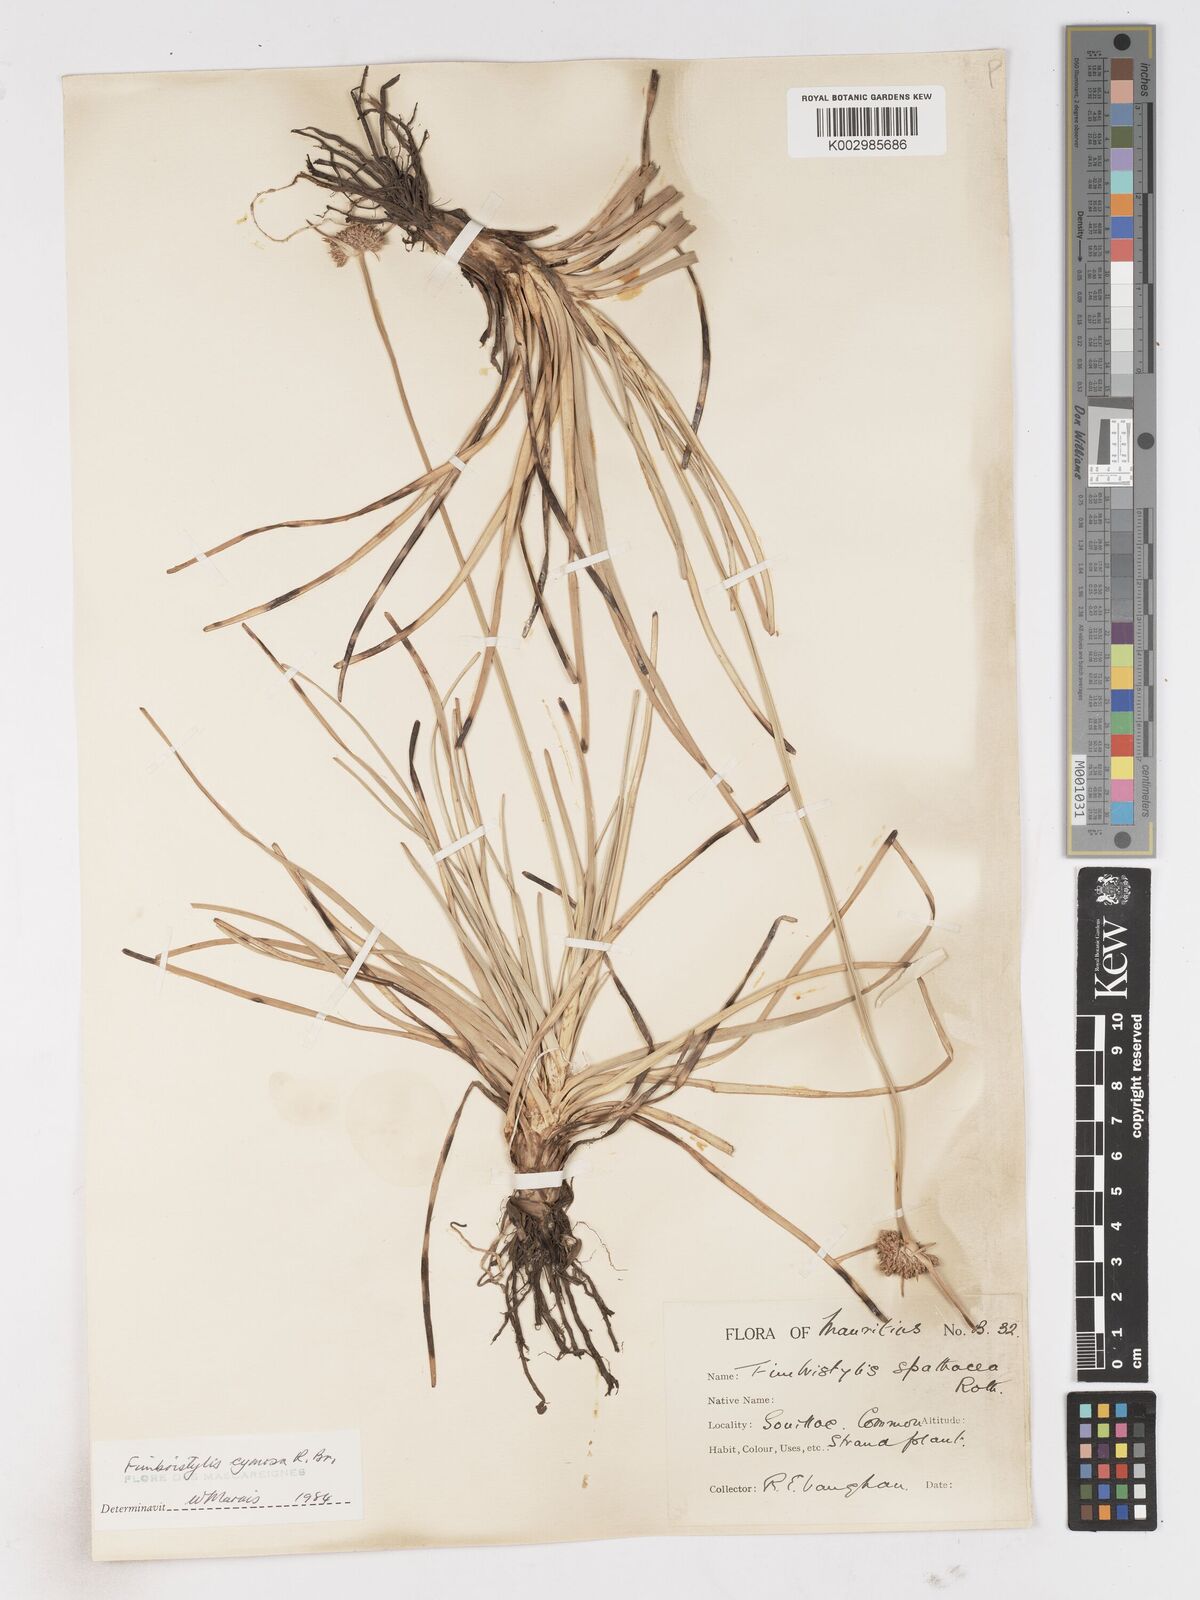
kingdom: Plantae
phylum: Tracheophyta
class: Liliopsida
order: Poales
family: Cyperaceae
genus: Fimbristylis
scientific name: Fimbristylis cymosa
